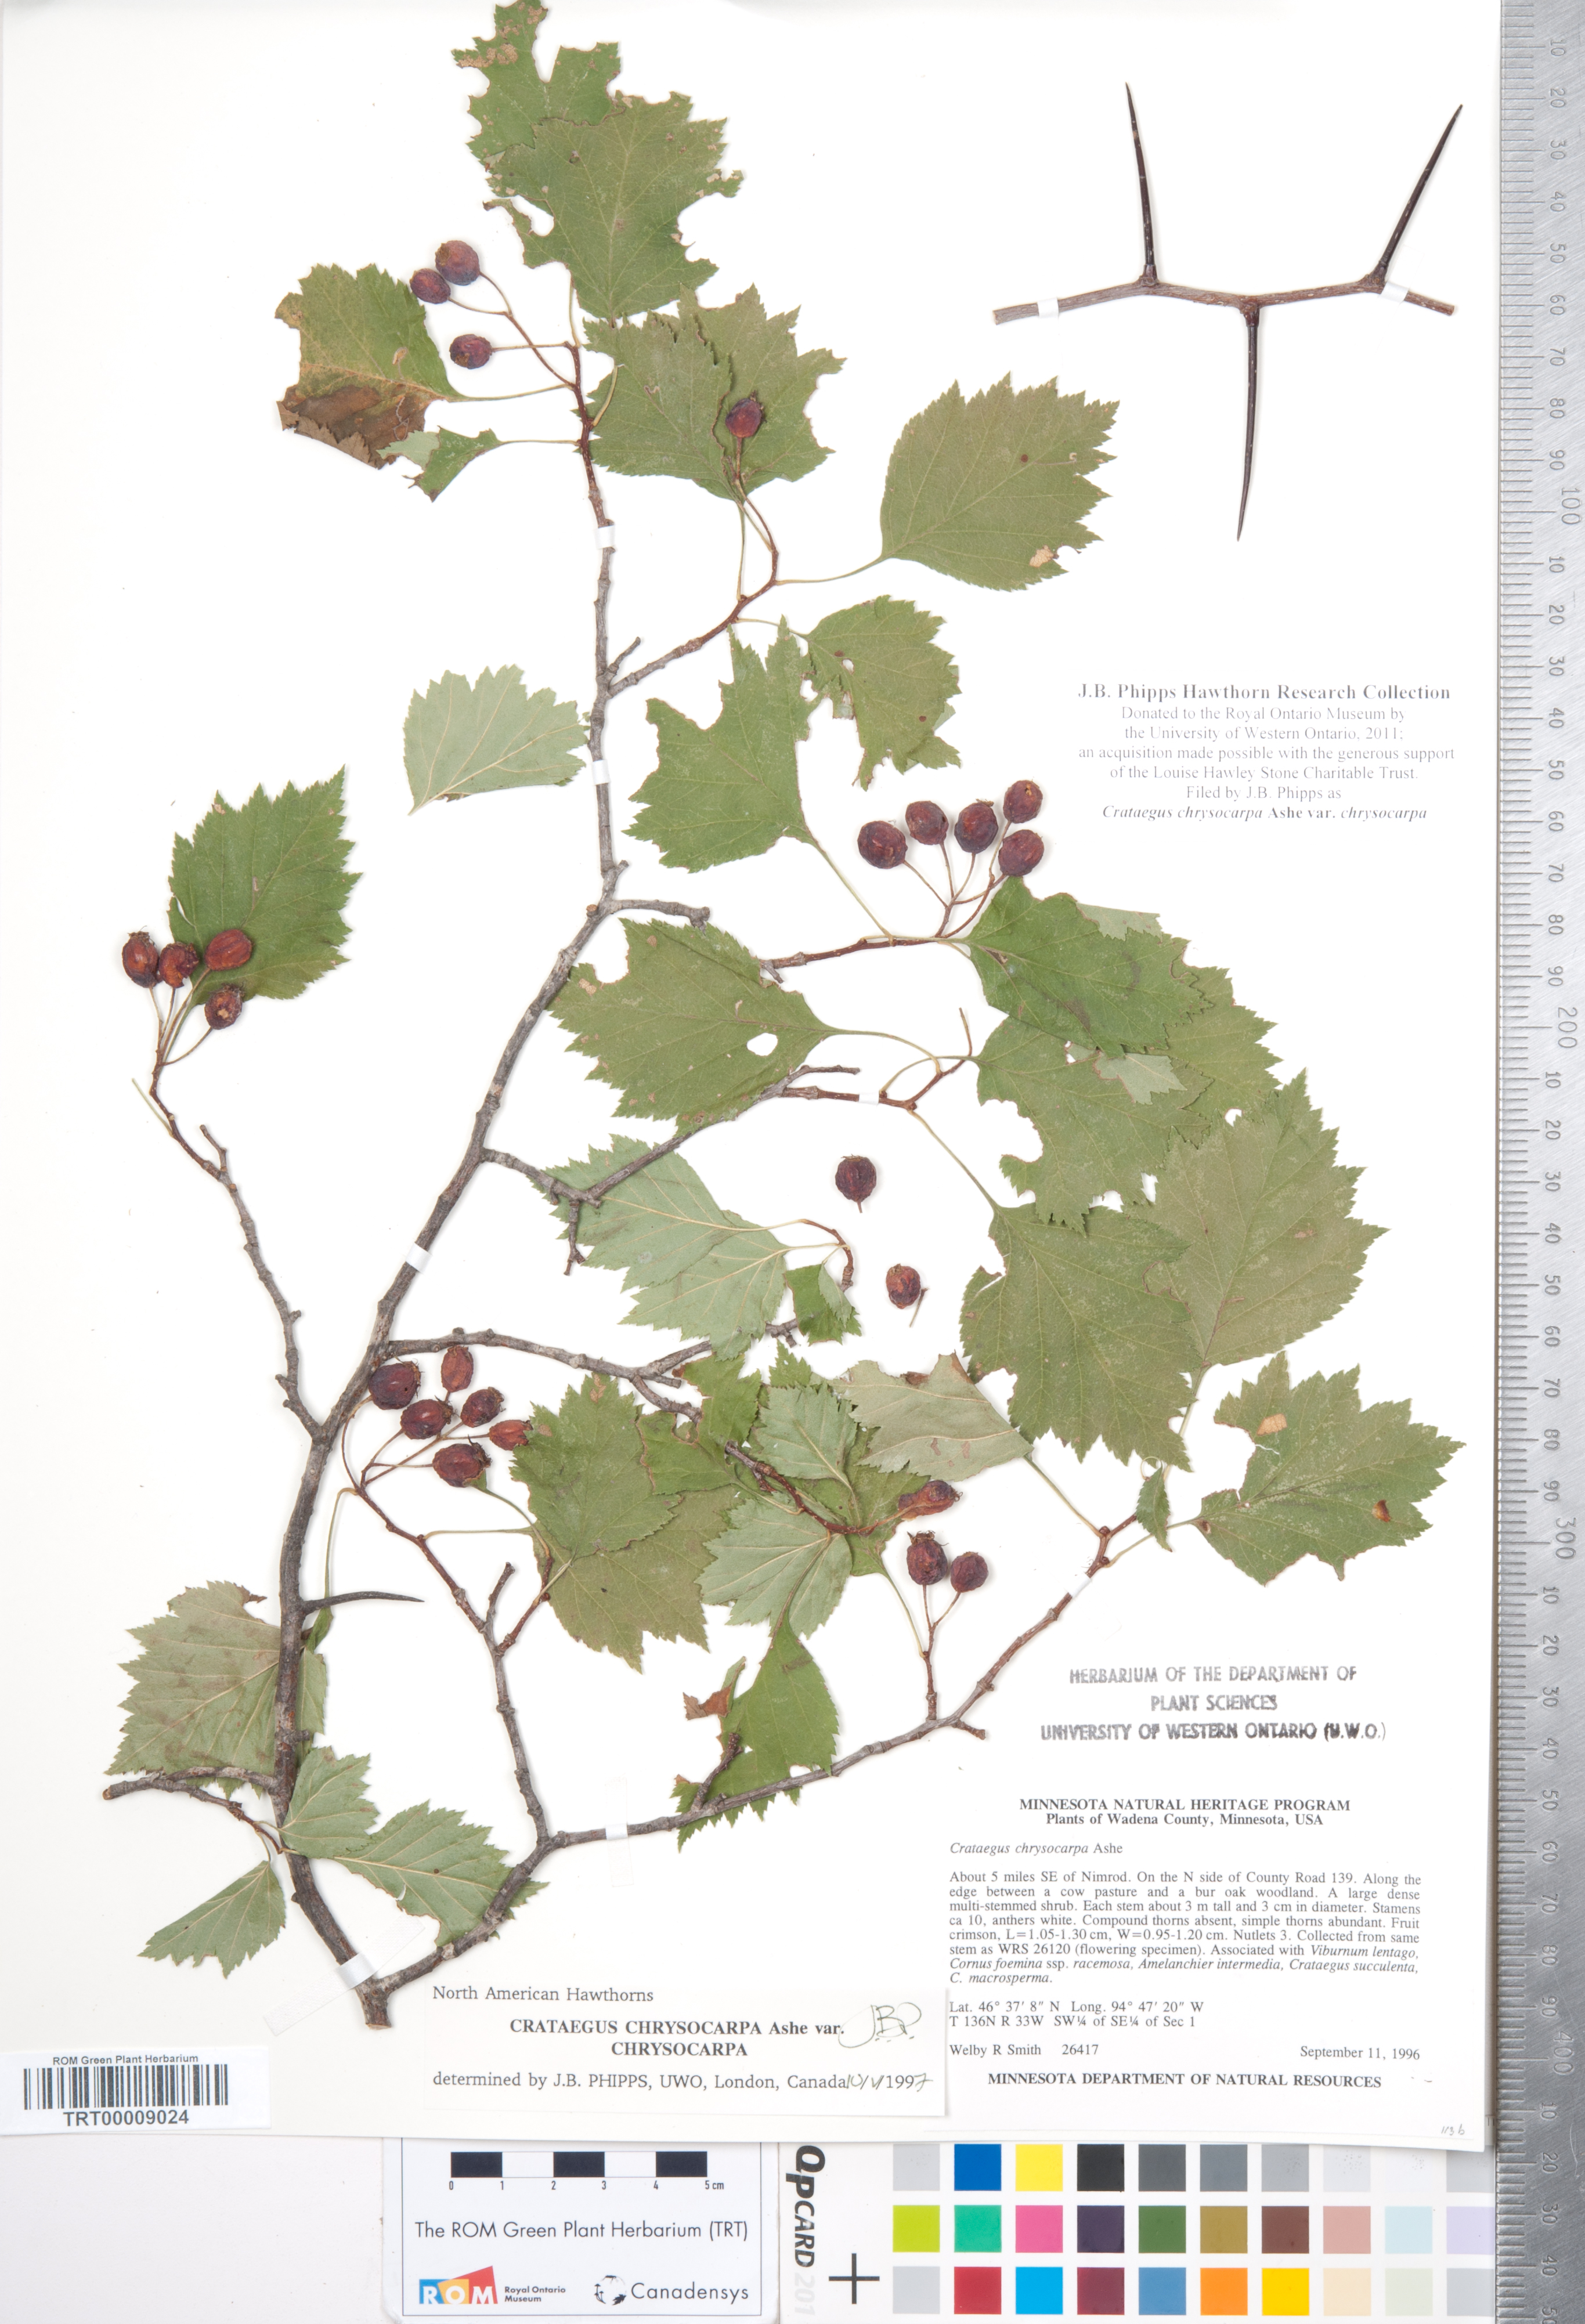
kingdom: Plantae
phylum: Tracheophyta
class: Magnoliopsida
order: Rosales
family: Rosaceae
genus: Crataegus
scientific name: Crataegus chrysocarpa
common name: Fire-berry hawthorn
